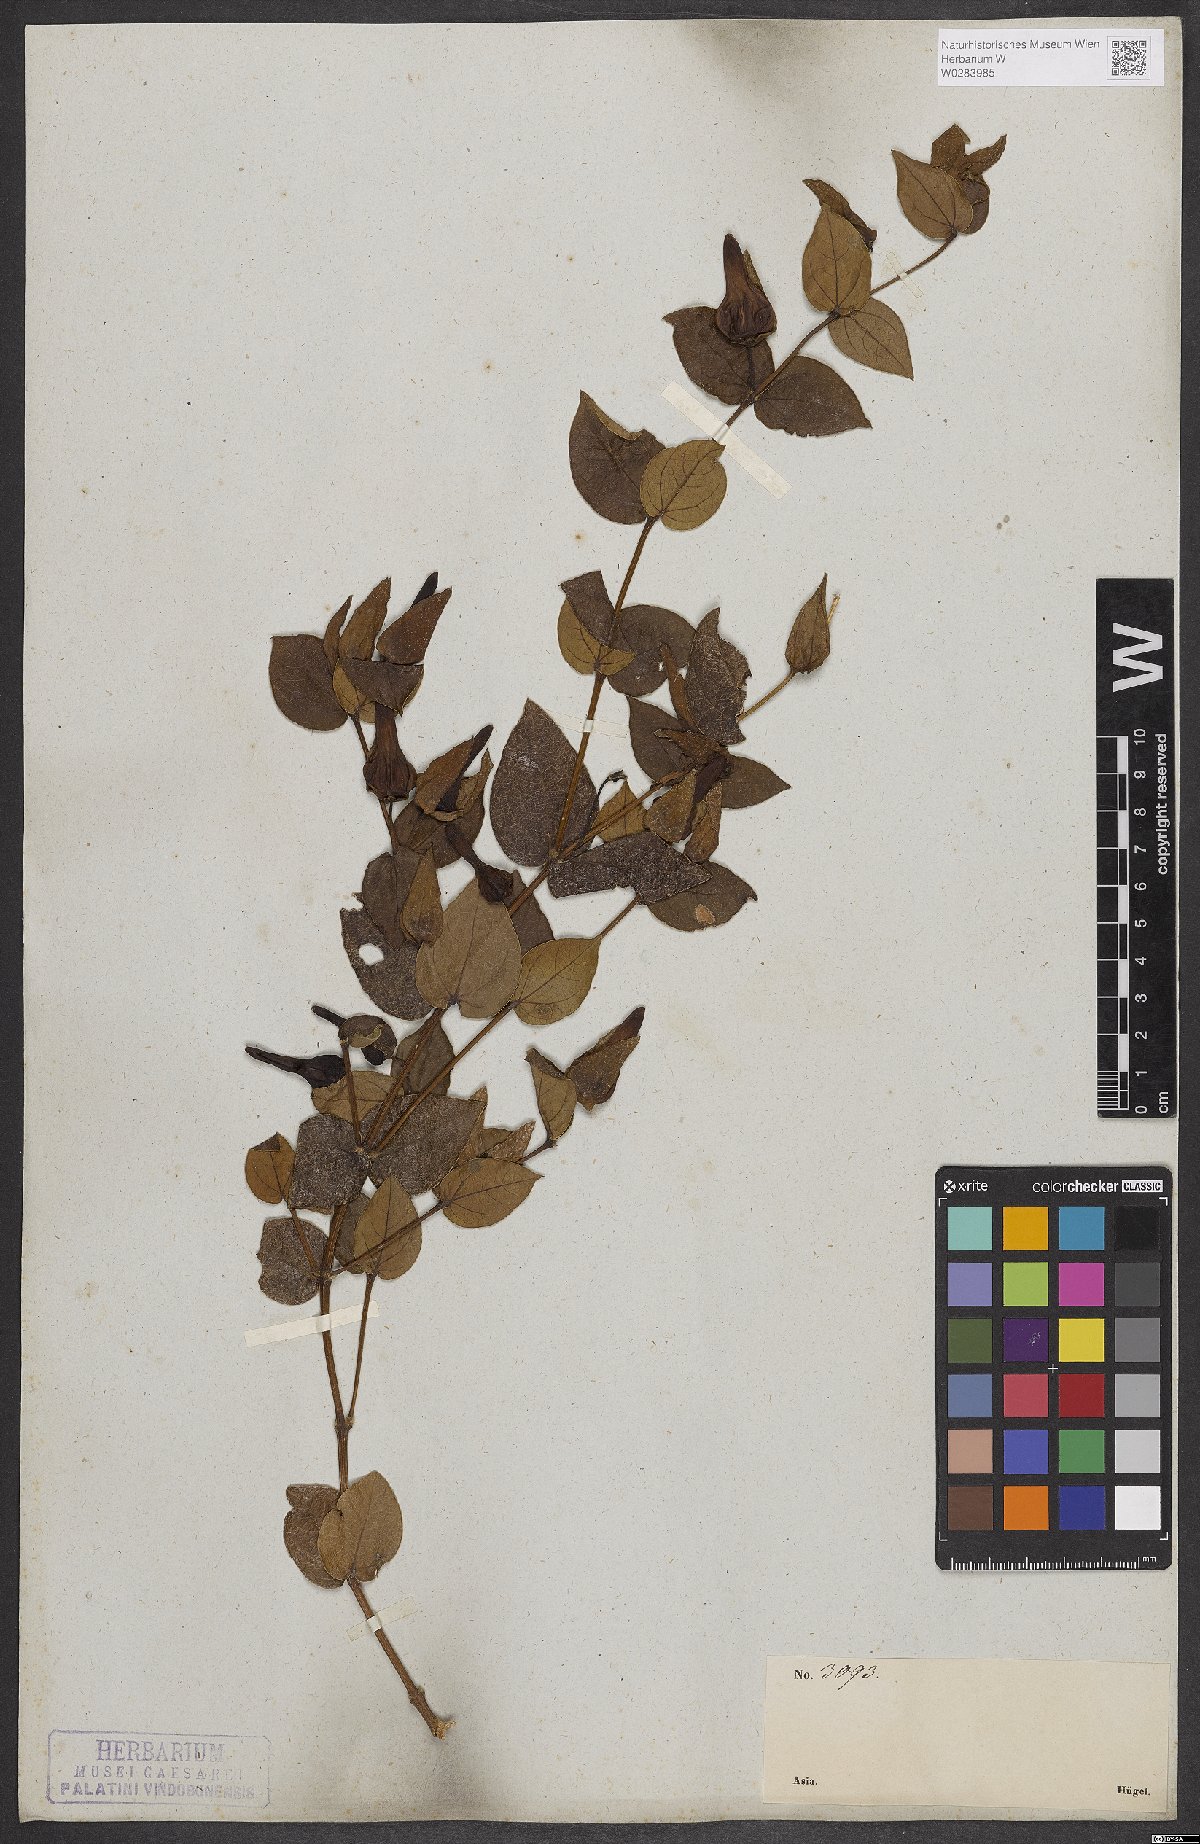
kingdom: Plantae
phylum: Tracheophyta
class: Magnoliopsida
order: Lamiales
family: Acanthaceae
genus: Meyenia
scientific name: Meyenia hawtayneana
